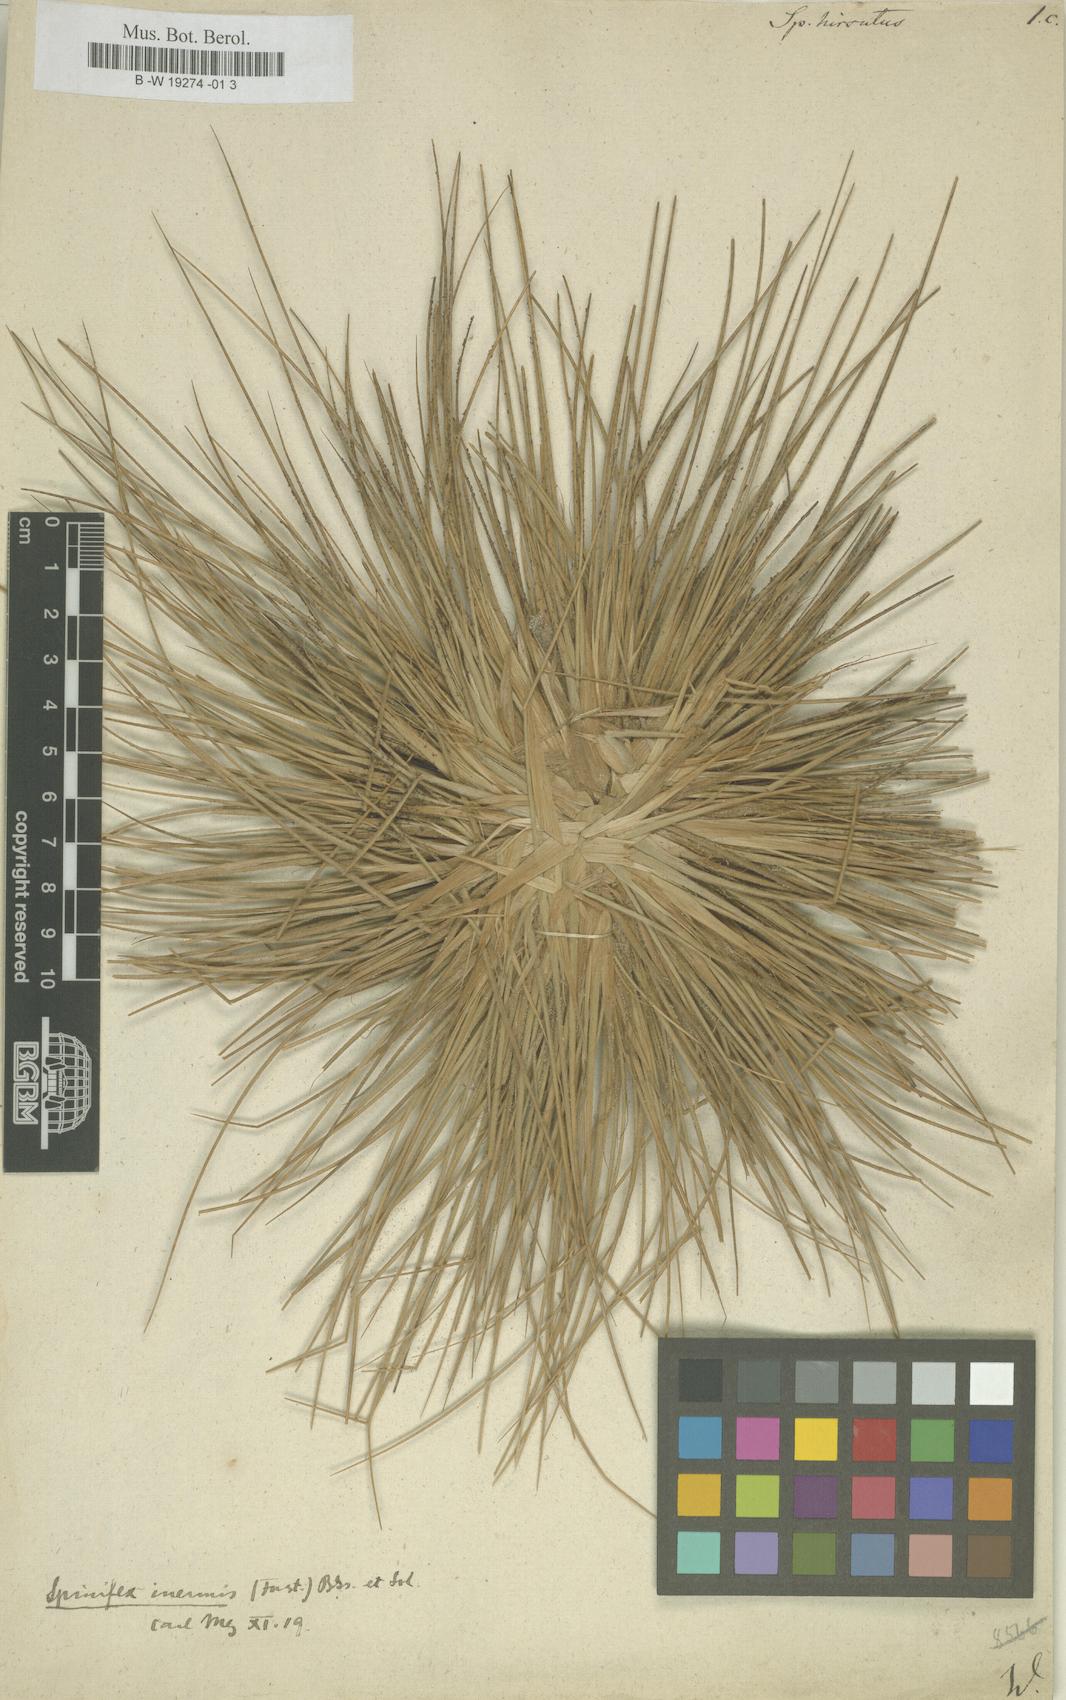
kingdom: Plantae
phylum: Tracheophyta
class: Liliopsida
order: Poales
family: Poaceae
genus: Spinifex
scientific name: Spinifex hirsutus
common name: Hairy spinifex
